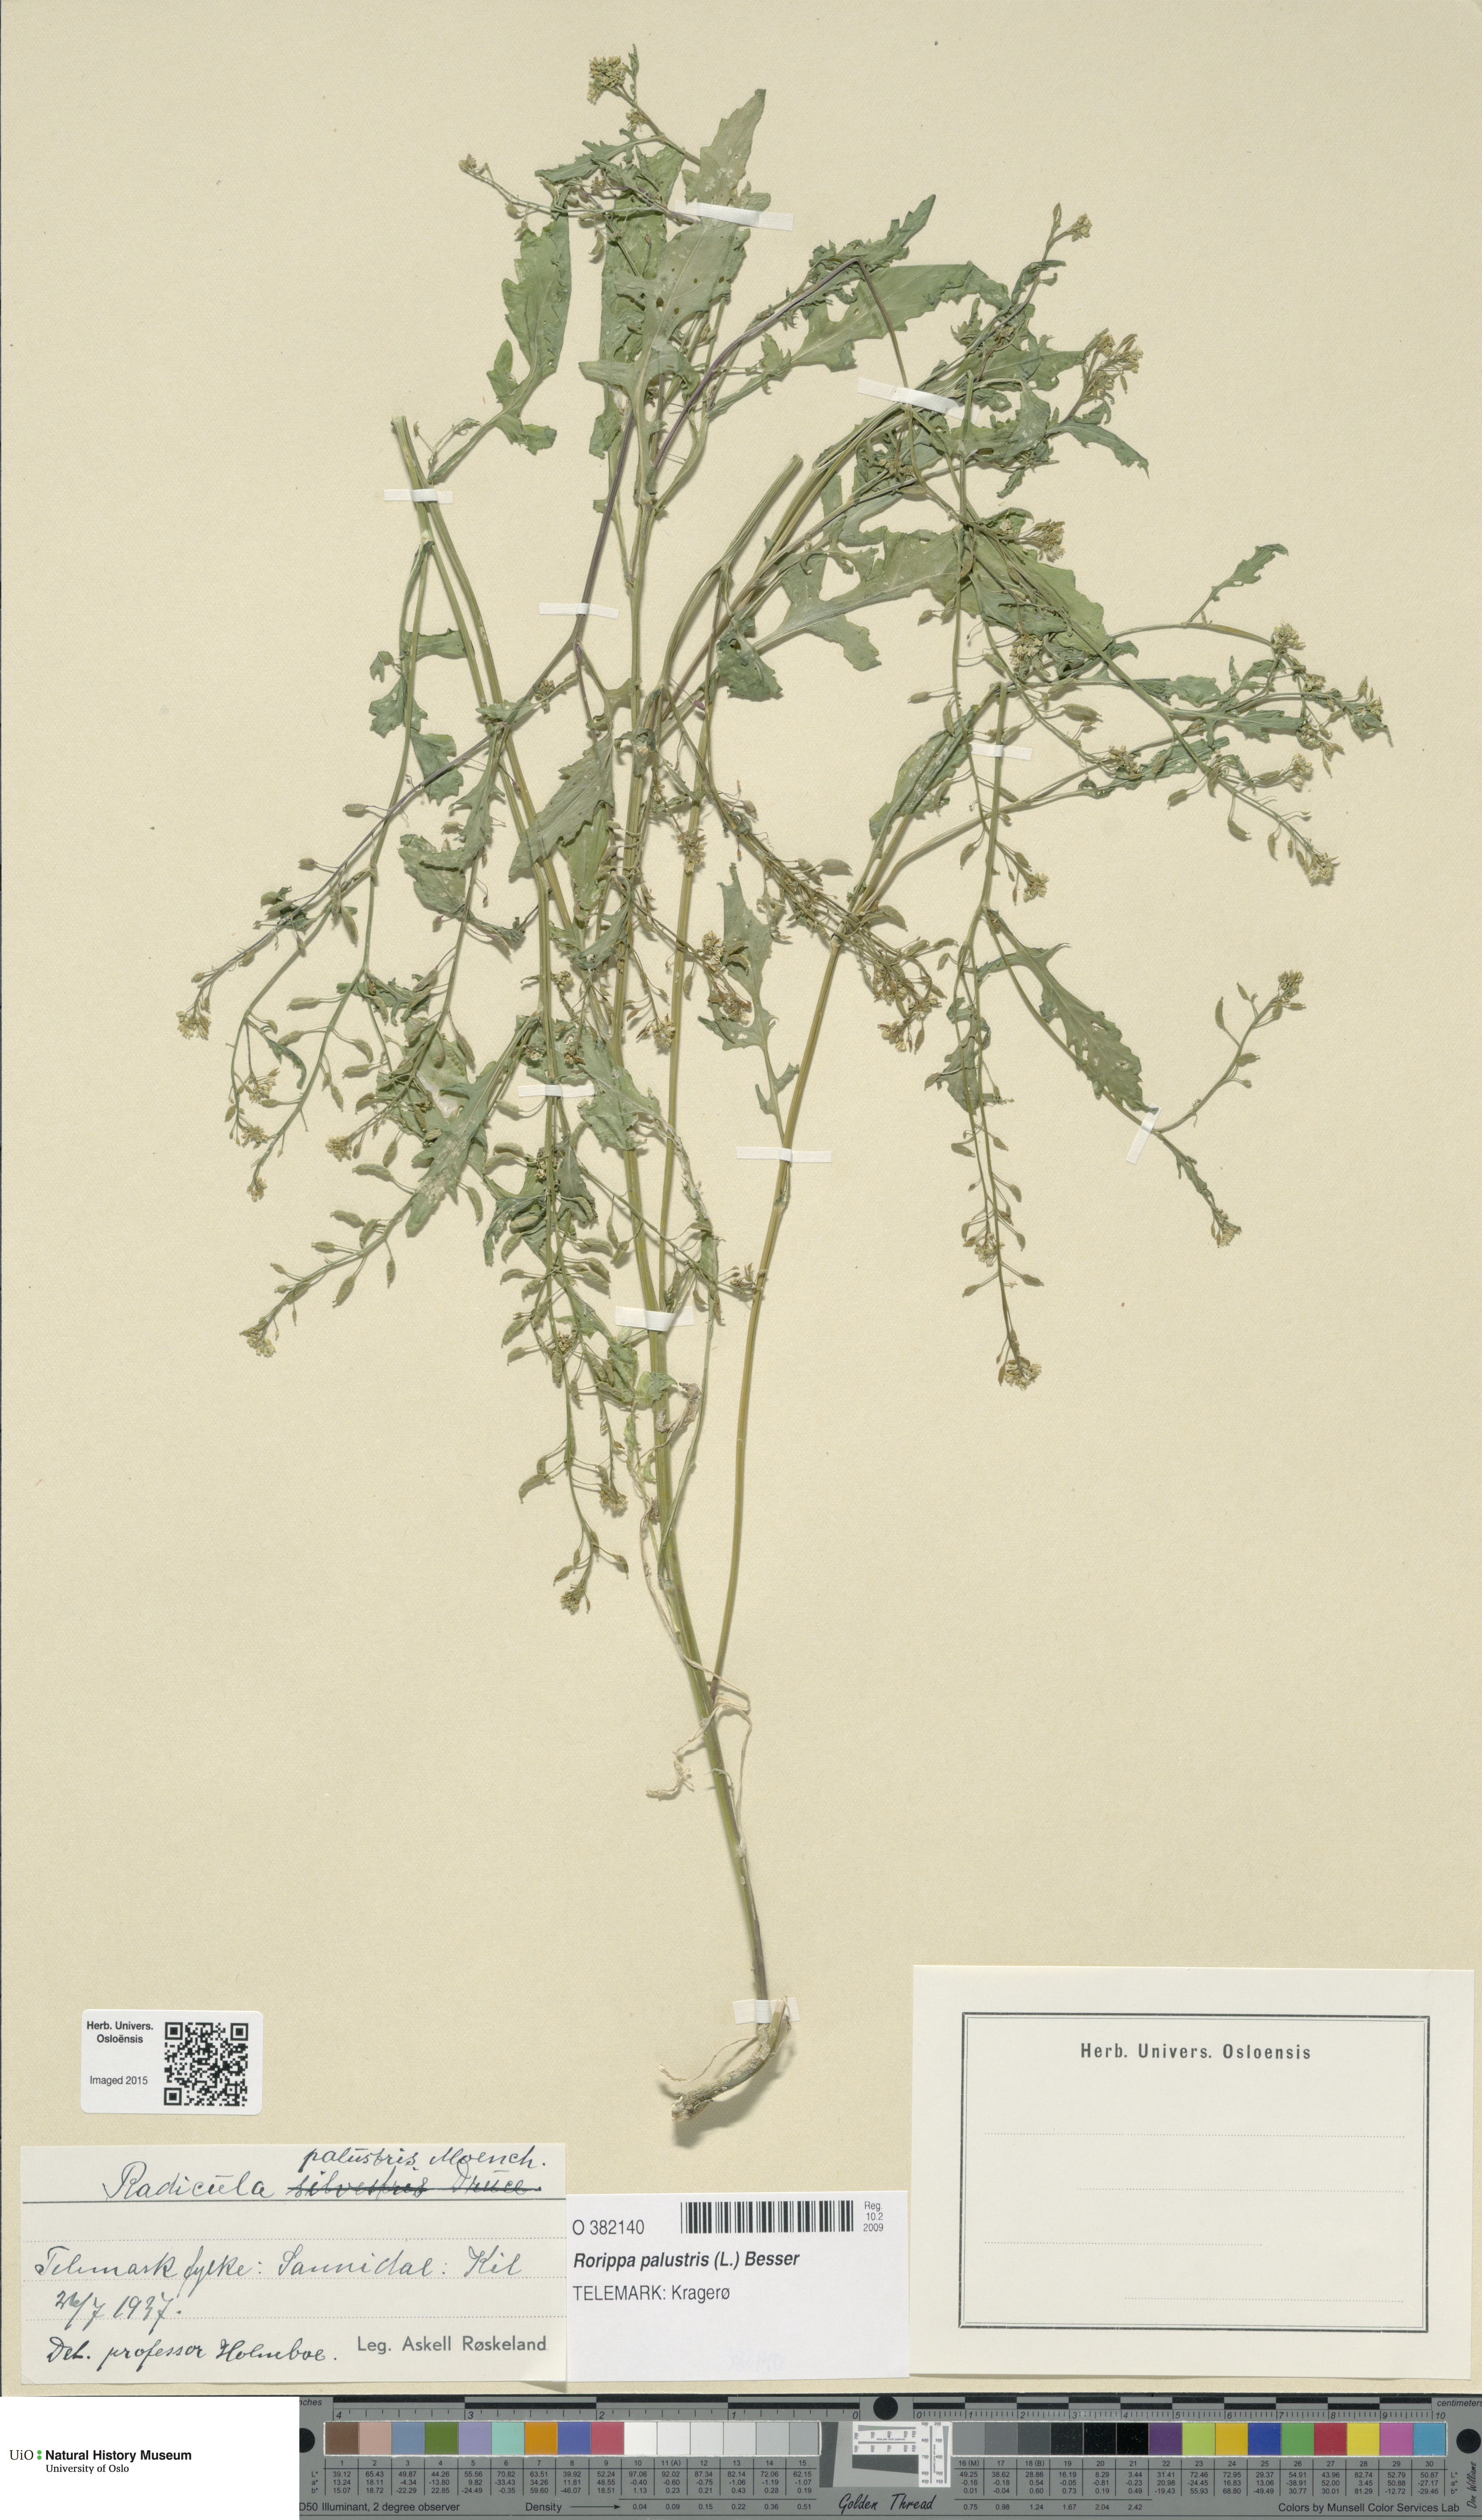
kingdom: Plantae
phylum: Tracheophyta
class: Magnoliopsida
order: Brassicales
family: Brassicaceae
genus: Rorippa
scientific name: Rorippa palustris
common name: Marsh yellow-cress
